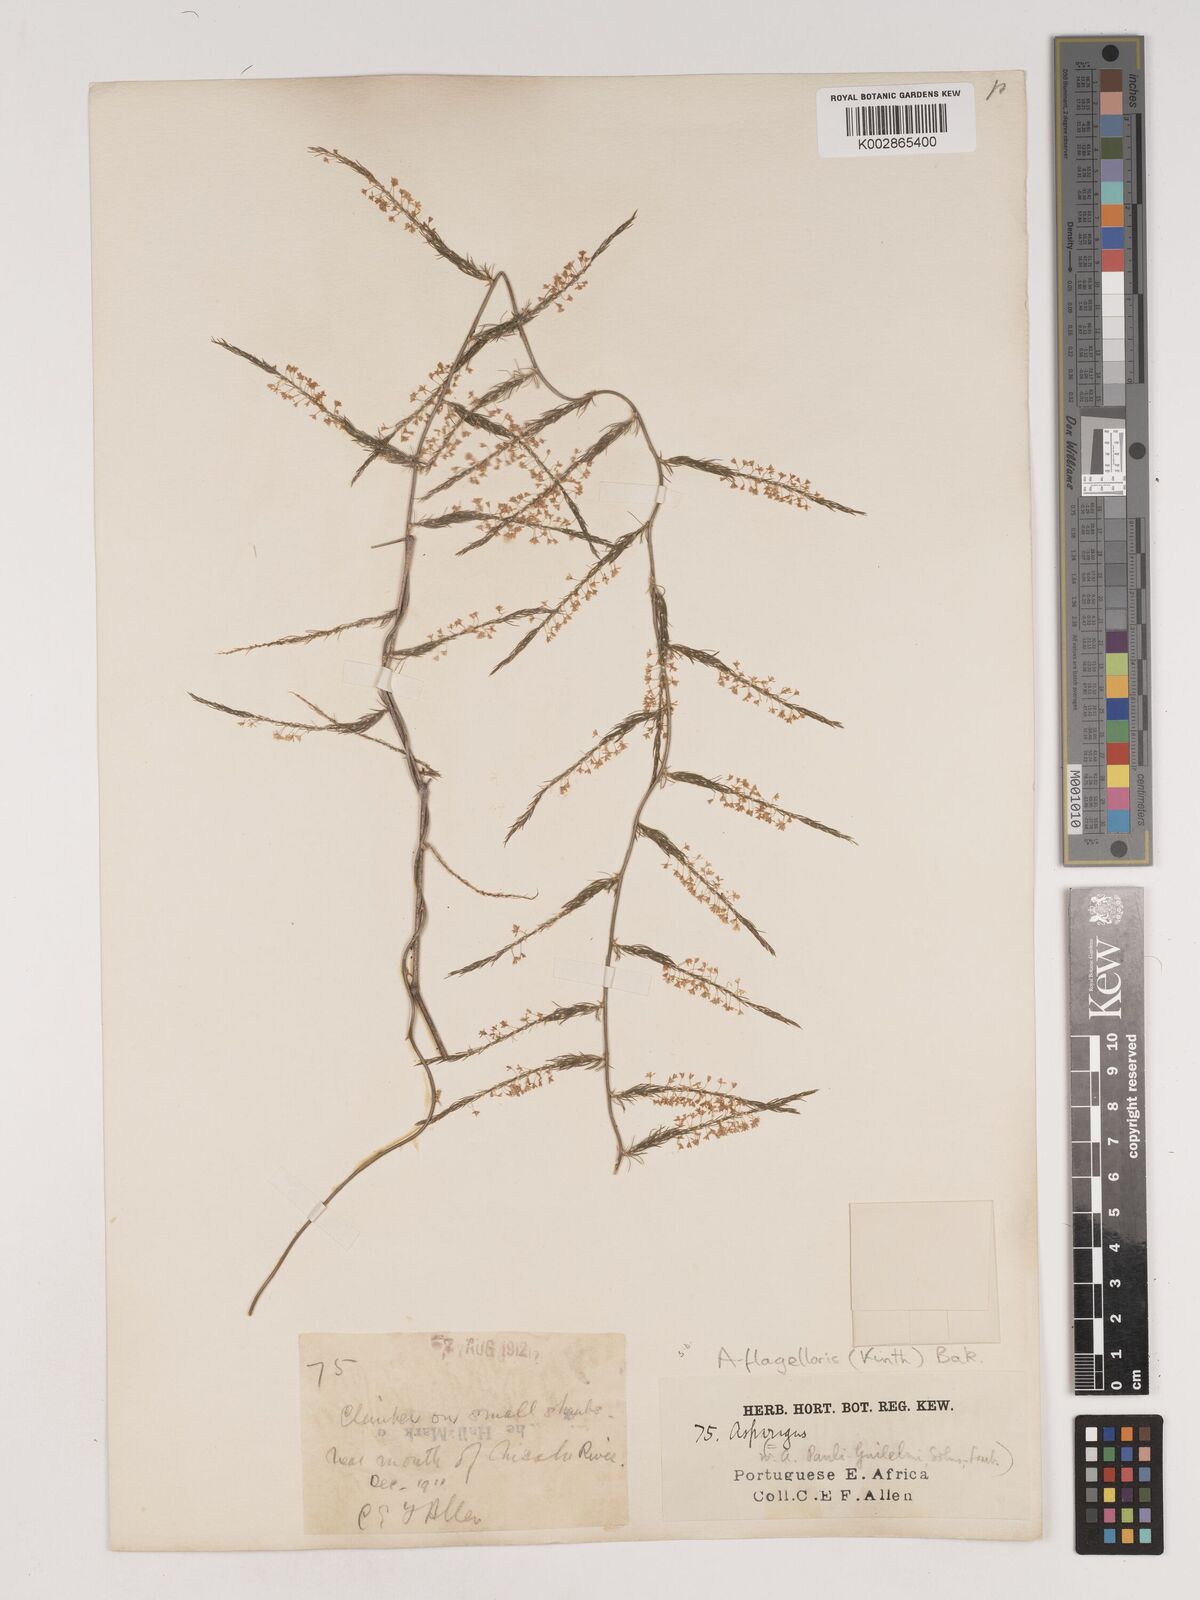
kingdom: Plantae
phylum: Tracheophyta
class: Liliopsida
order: Asparagales
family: Asparagaceae
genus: Asparagus
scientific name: Asparagus flagellaris
